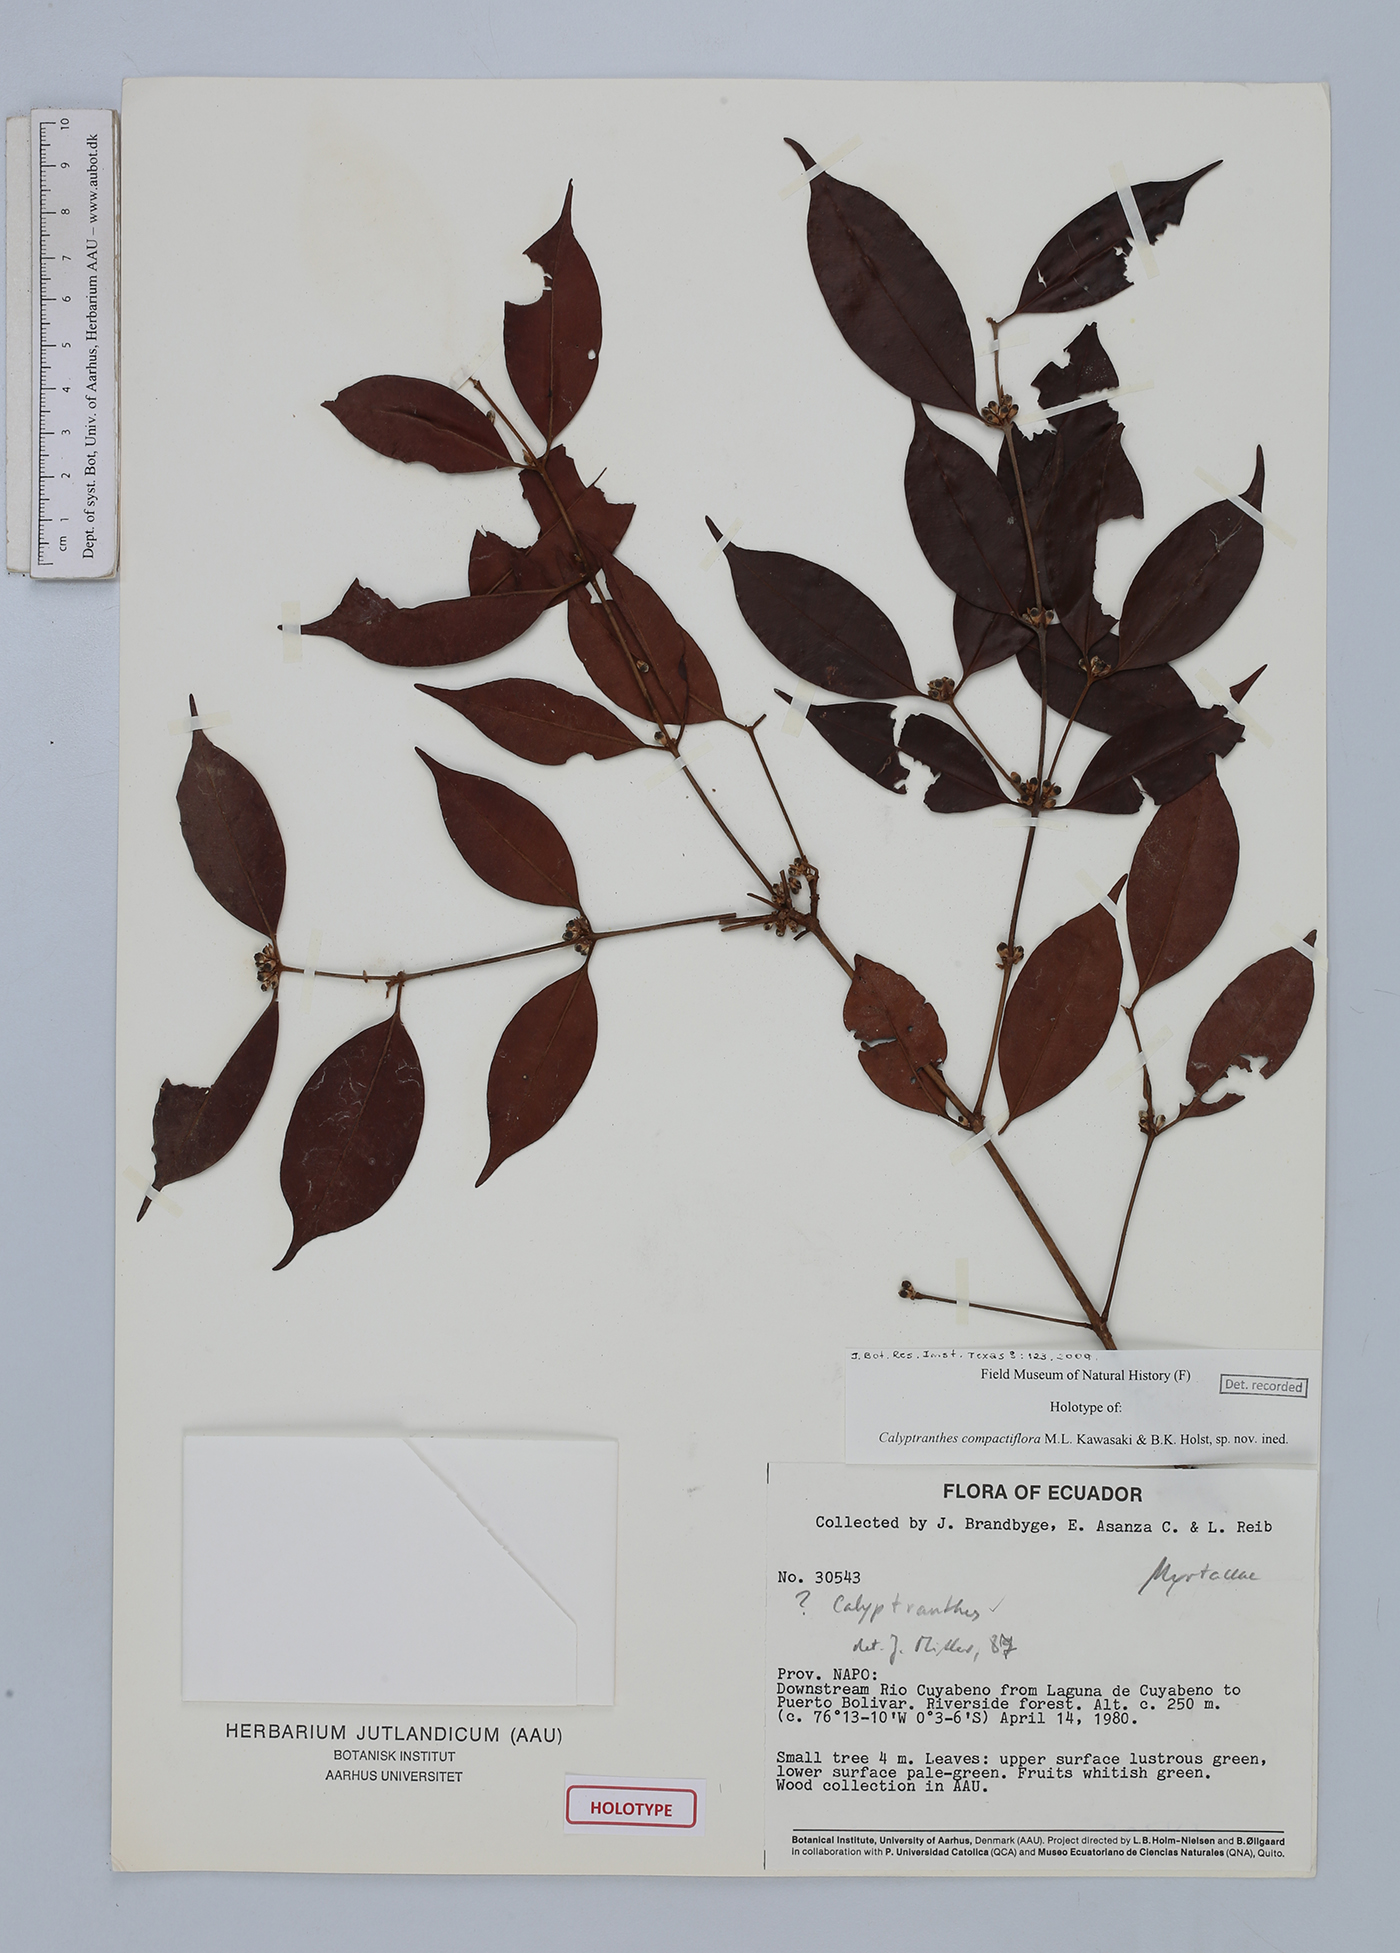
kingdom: Plantae
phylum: Tracheophyta
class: Magnoliopsida
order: Myrtales
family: Myrtaceae
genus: Myrcia
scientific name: Myrcia compactiflora
